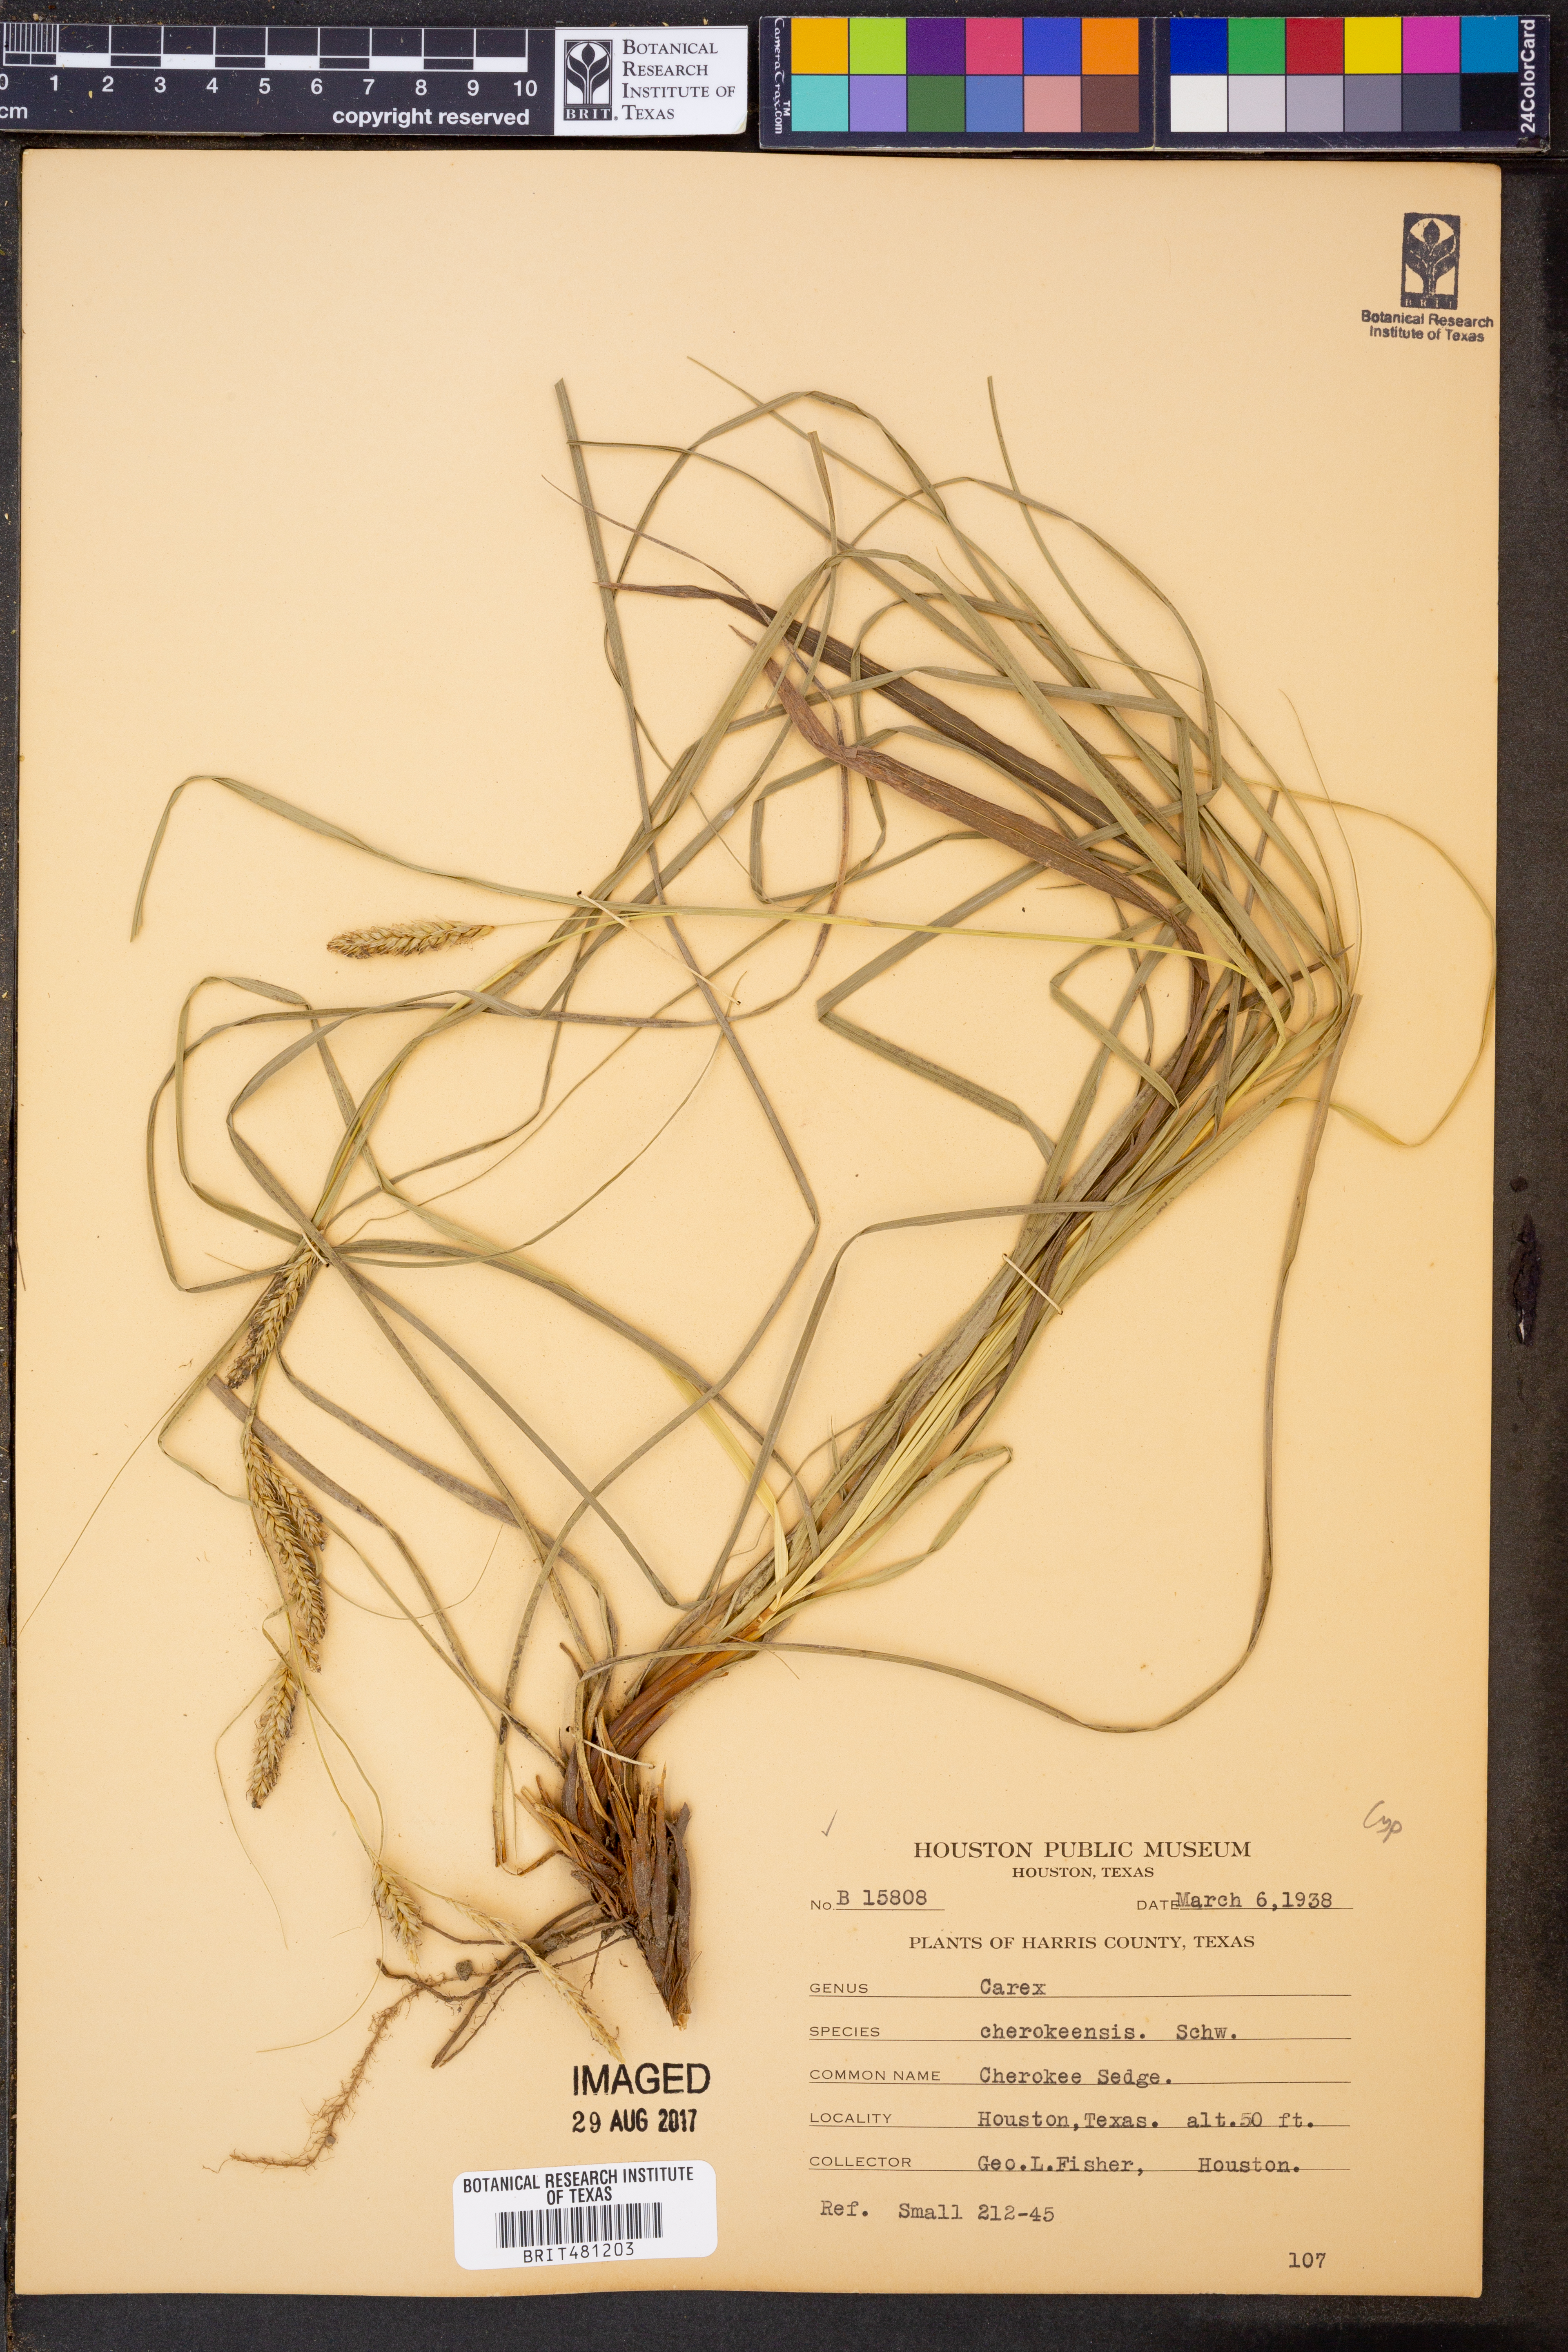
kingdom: Plantae
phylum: Tracheophyta
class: Liliopsida
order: Poales
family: Cyperaceae
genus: Carex
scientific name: Carex cherokeensis
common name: Cherokee sedge
